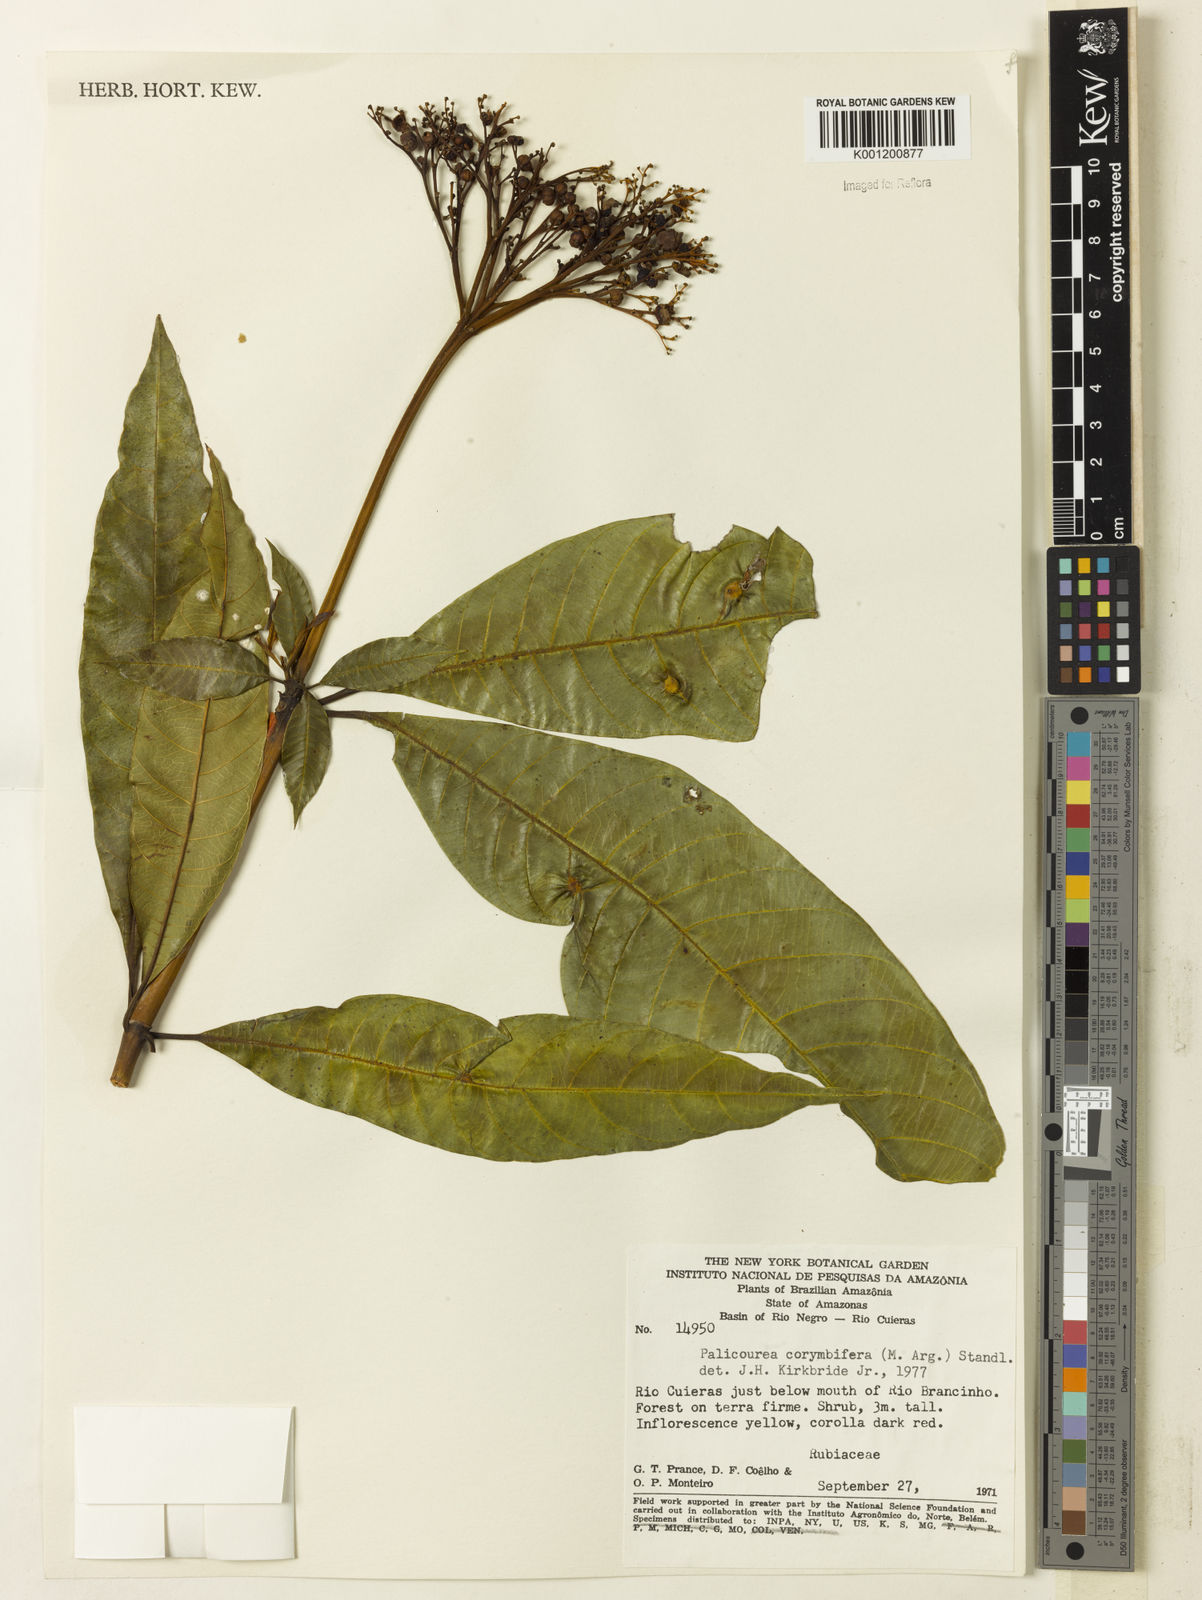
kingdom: Plantae
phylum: Tracheophyta
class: Magnoliopsida
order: Gentianales
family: Rubiaceae
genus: Palicourea
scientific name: Palicourea
